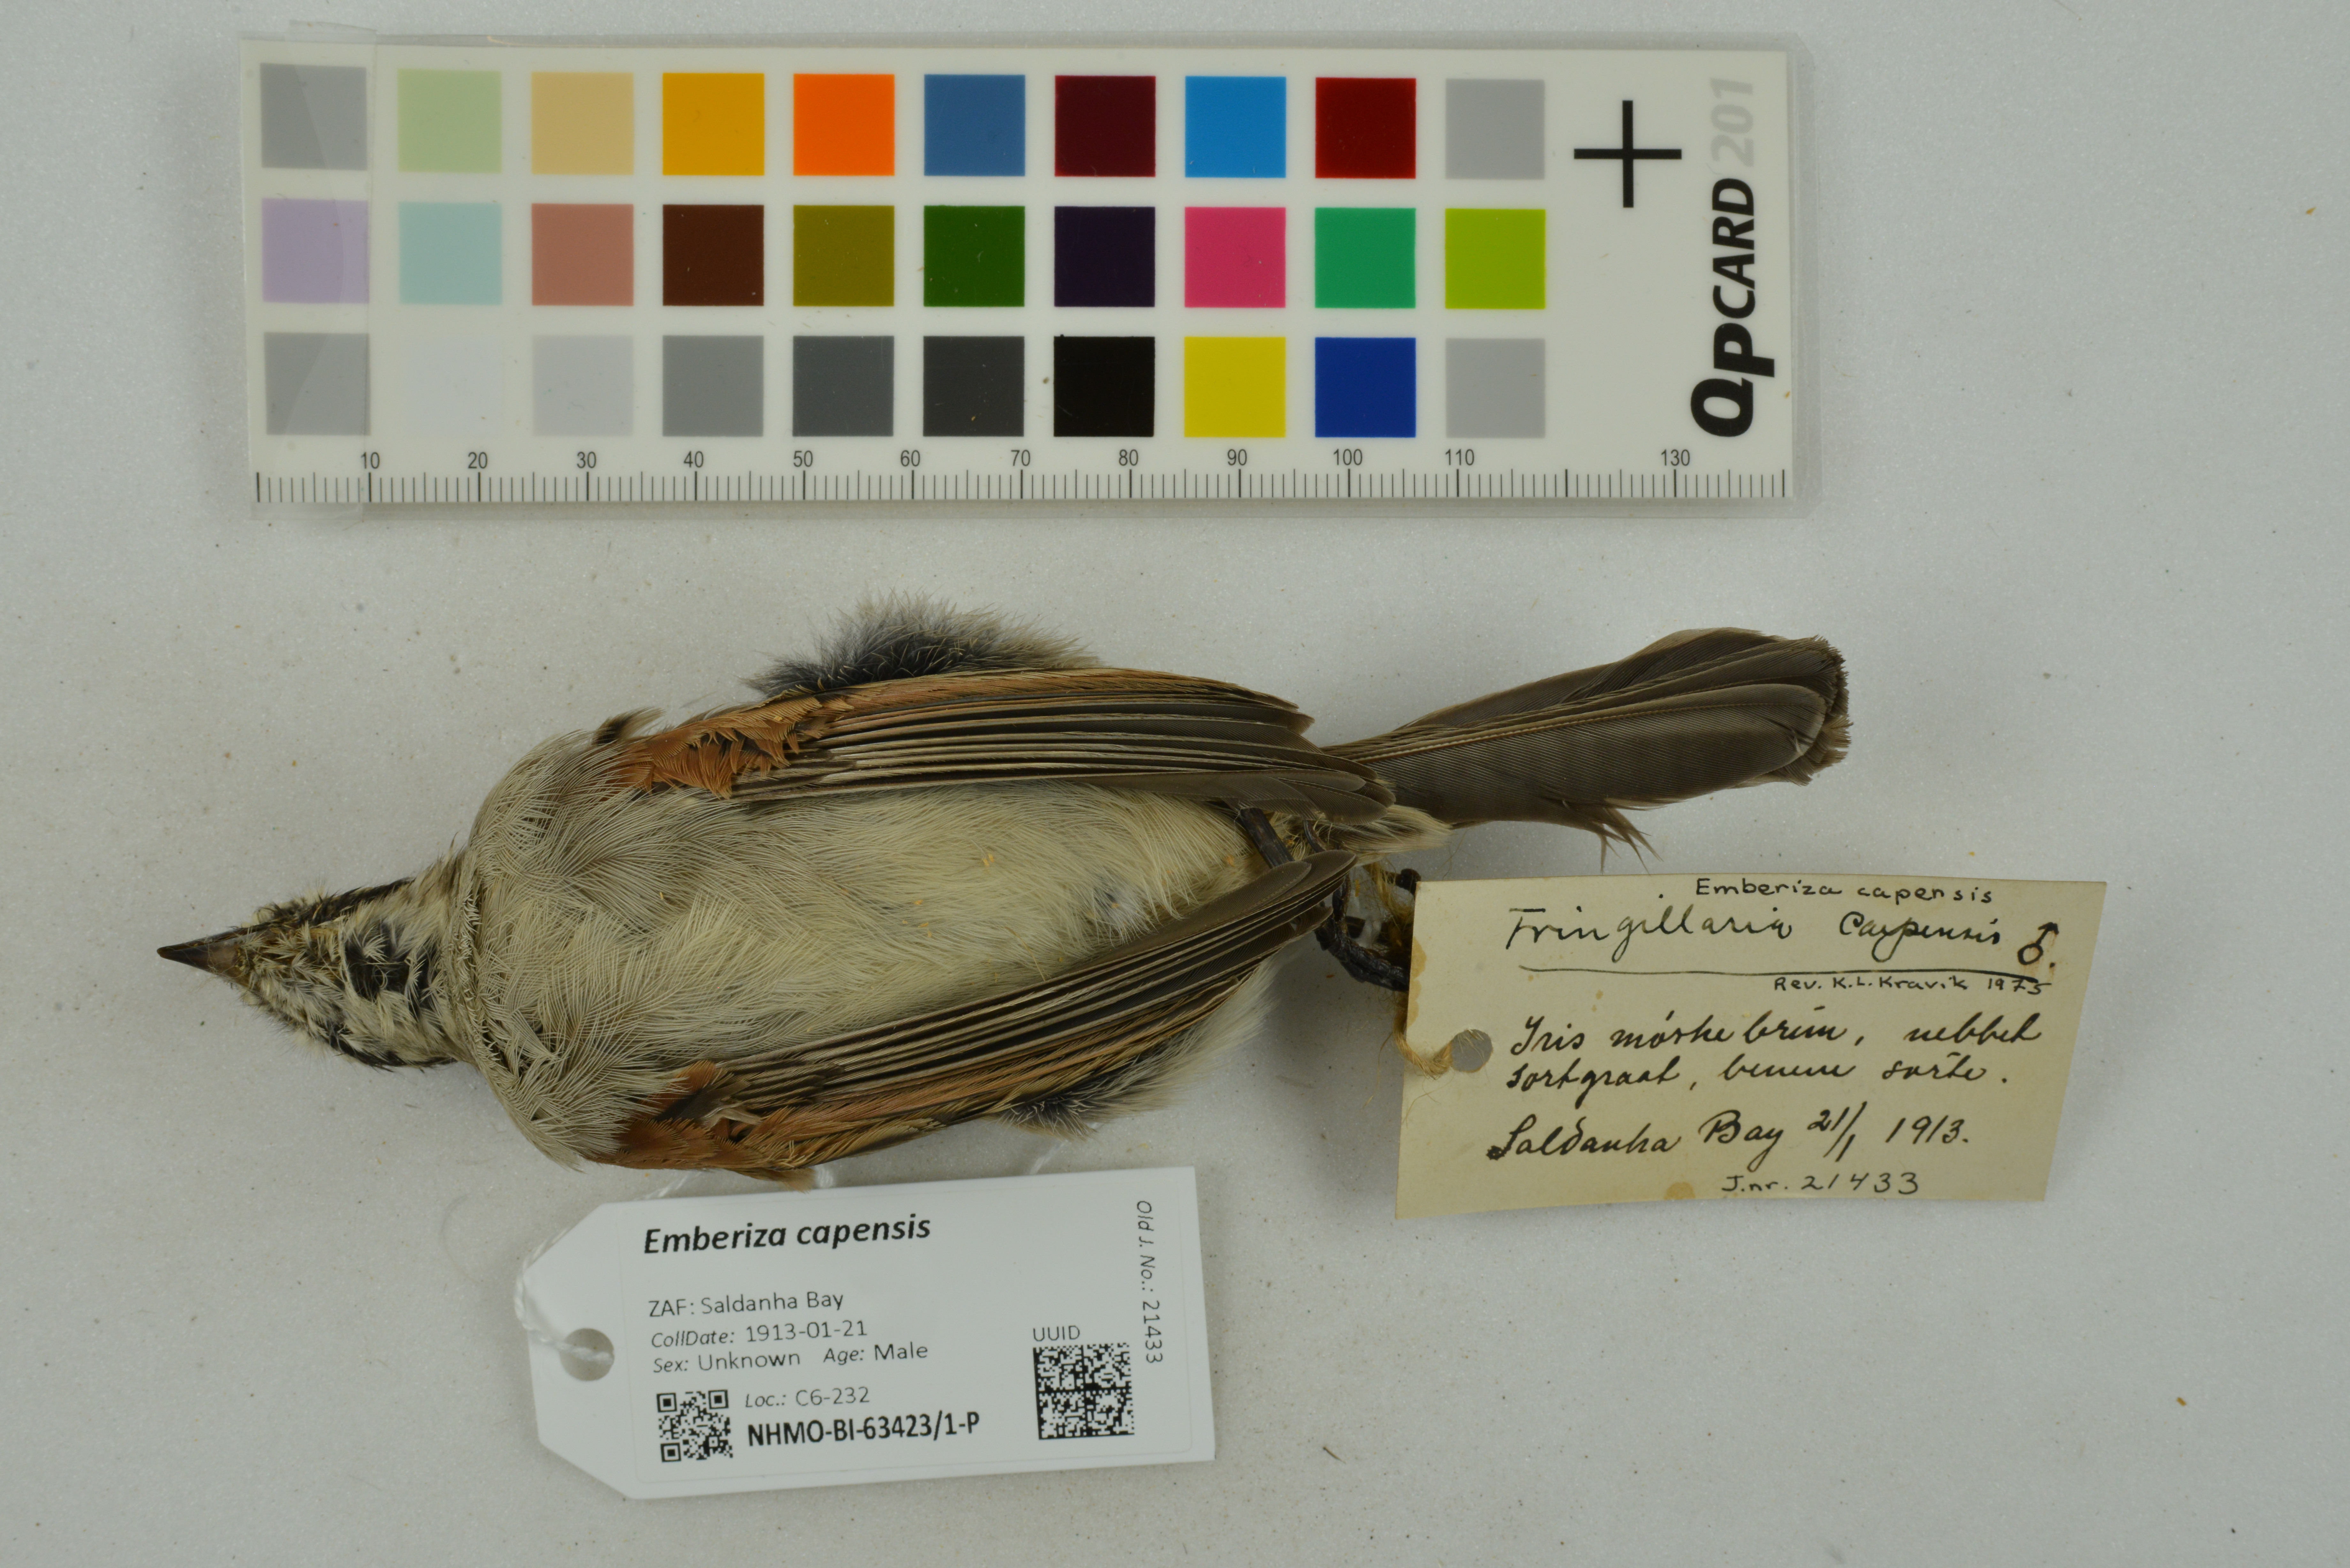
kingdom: Animalia
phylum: Chordata
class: Aves
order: Passeriformes
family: Emberizidae
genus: Emberiza
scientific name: Emberiza capensis
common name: Cape bunting
